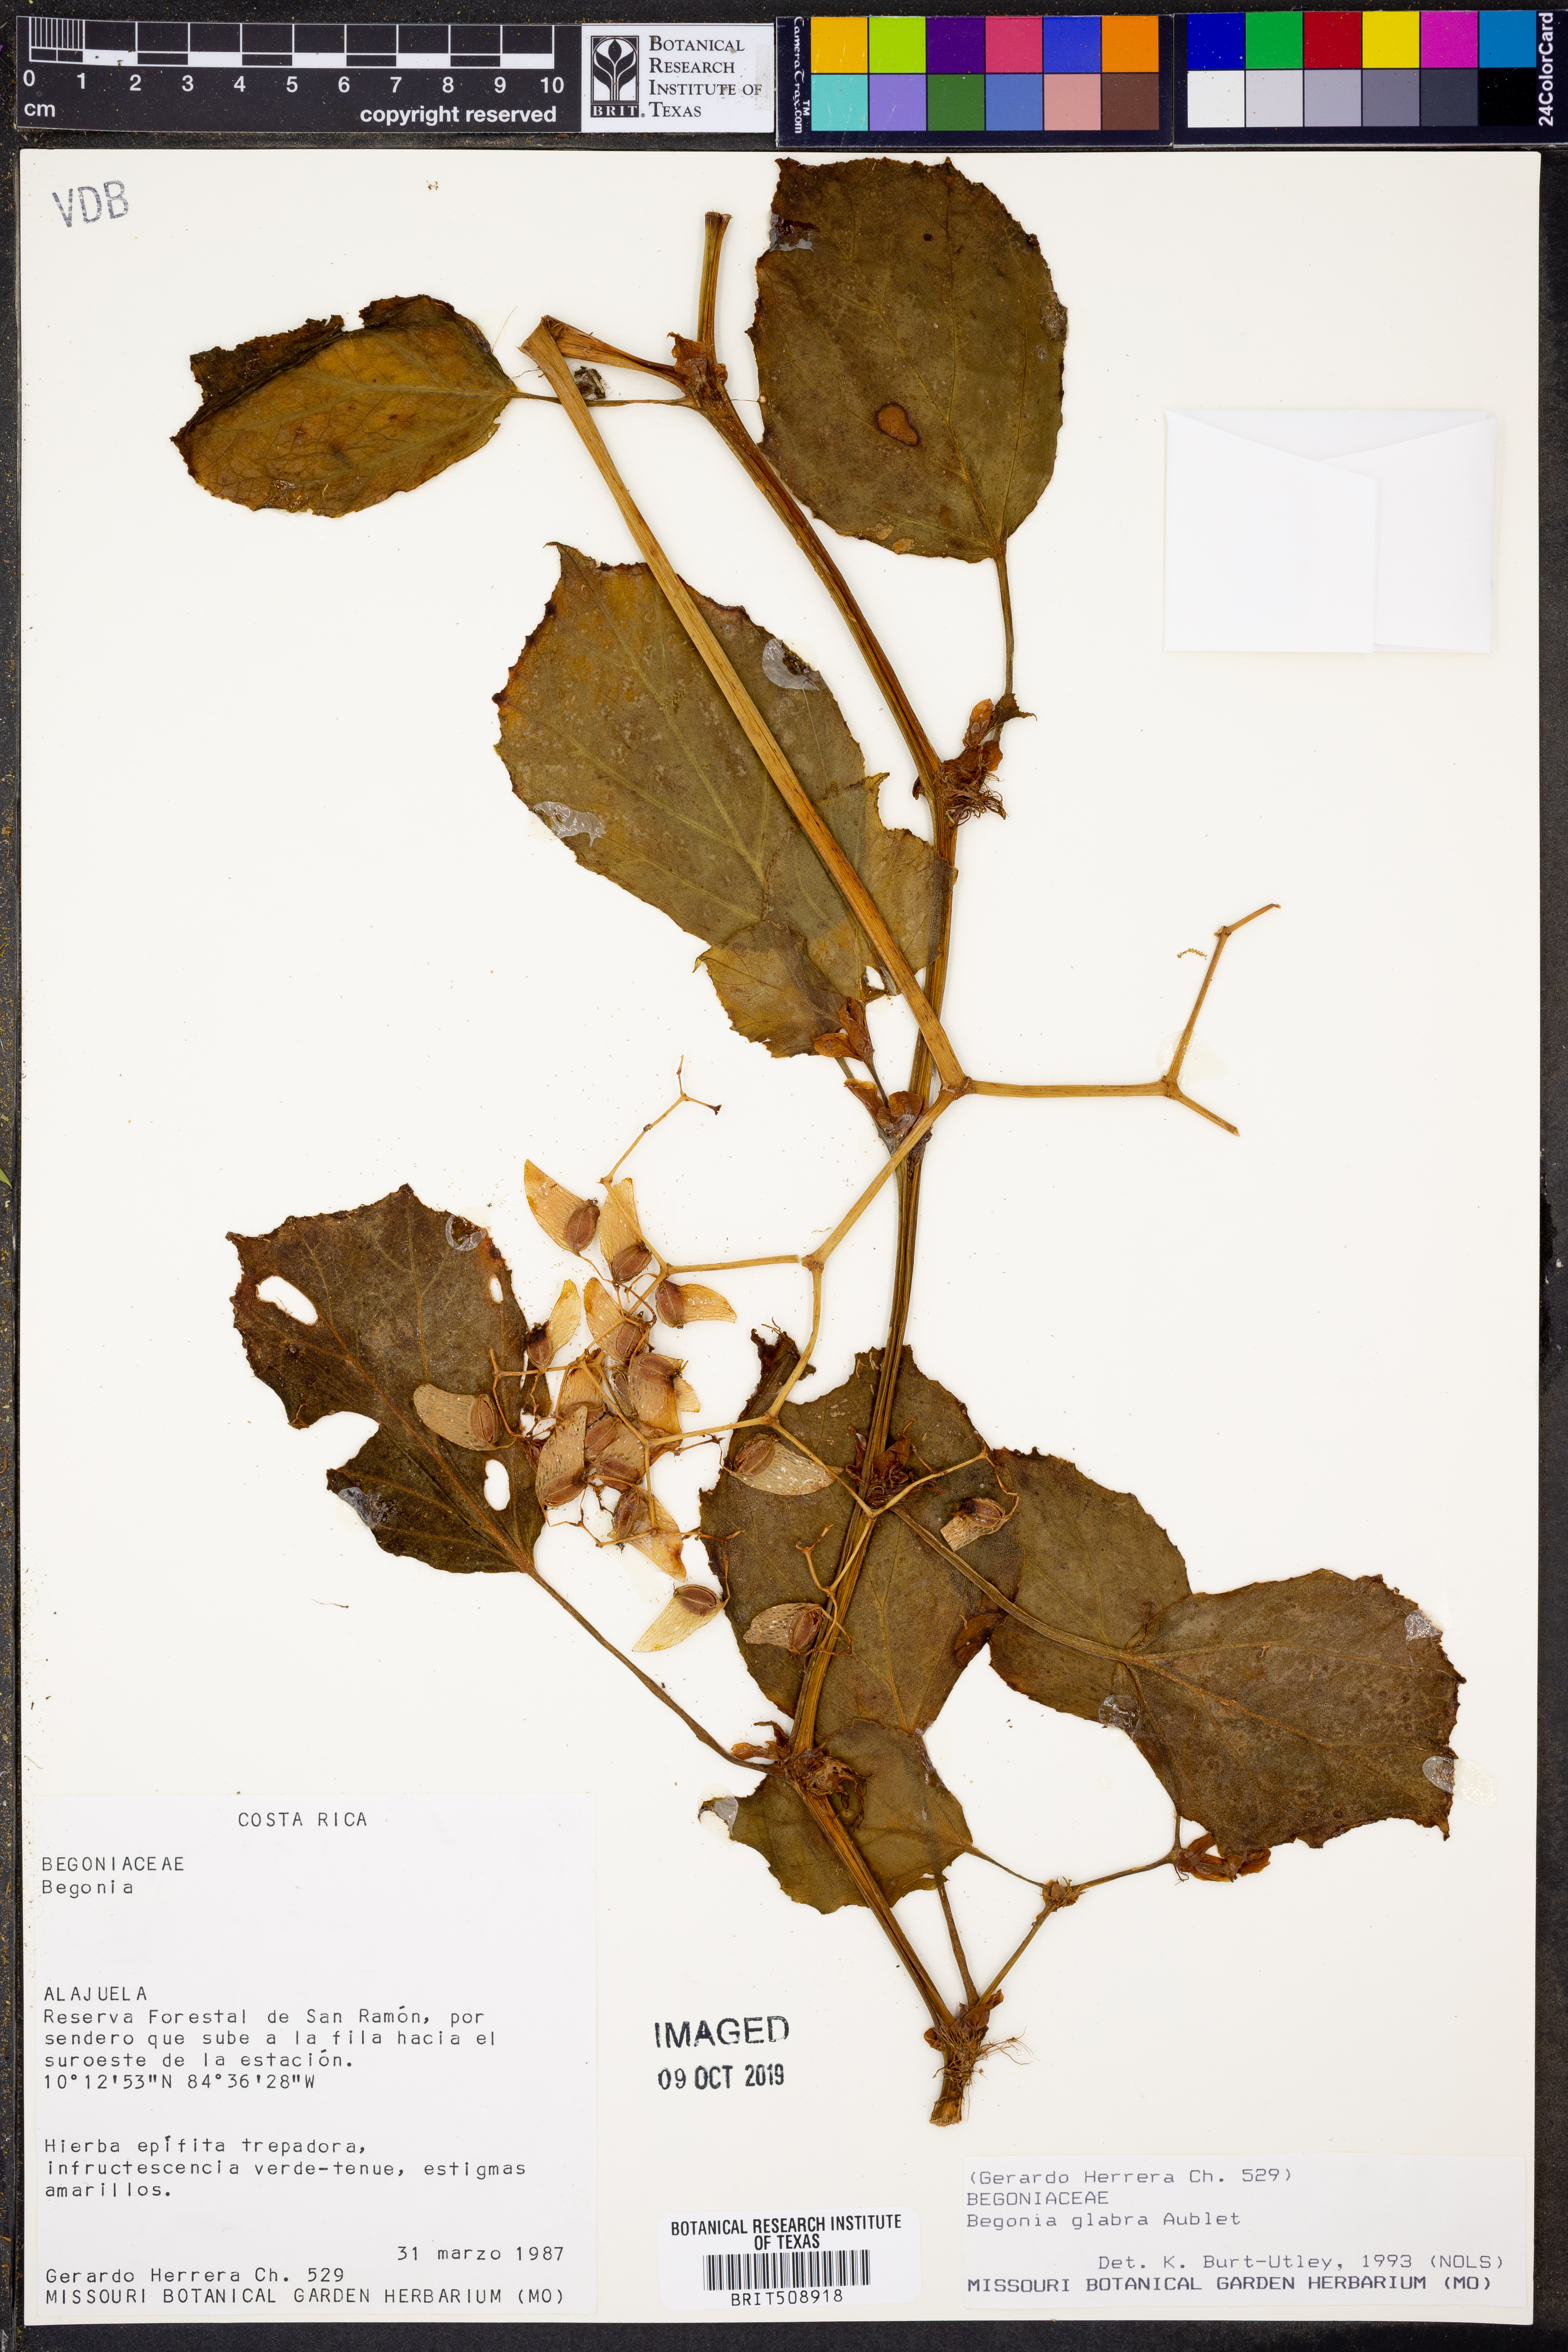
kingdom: Plantae
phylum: Tracheophyta
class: Magnoliopsida
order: Cucurbitales
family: Begoniaceae
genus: Begonia
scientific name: Begonia glabra
